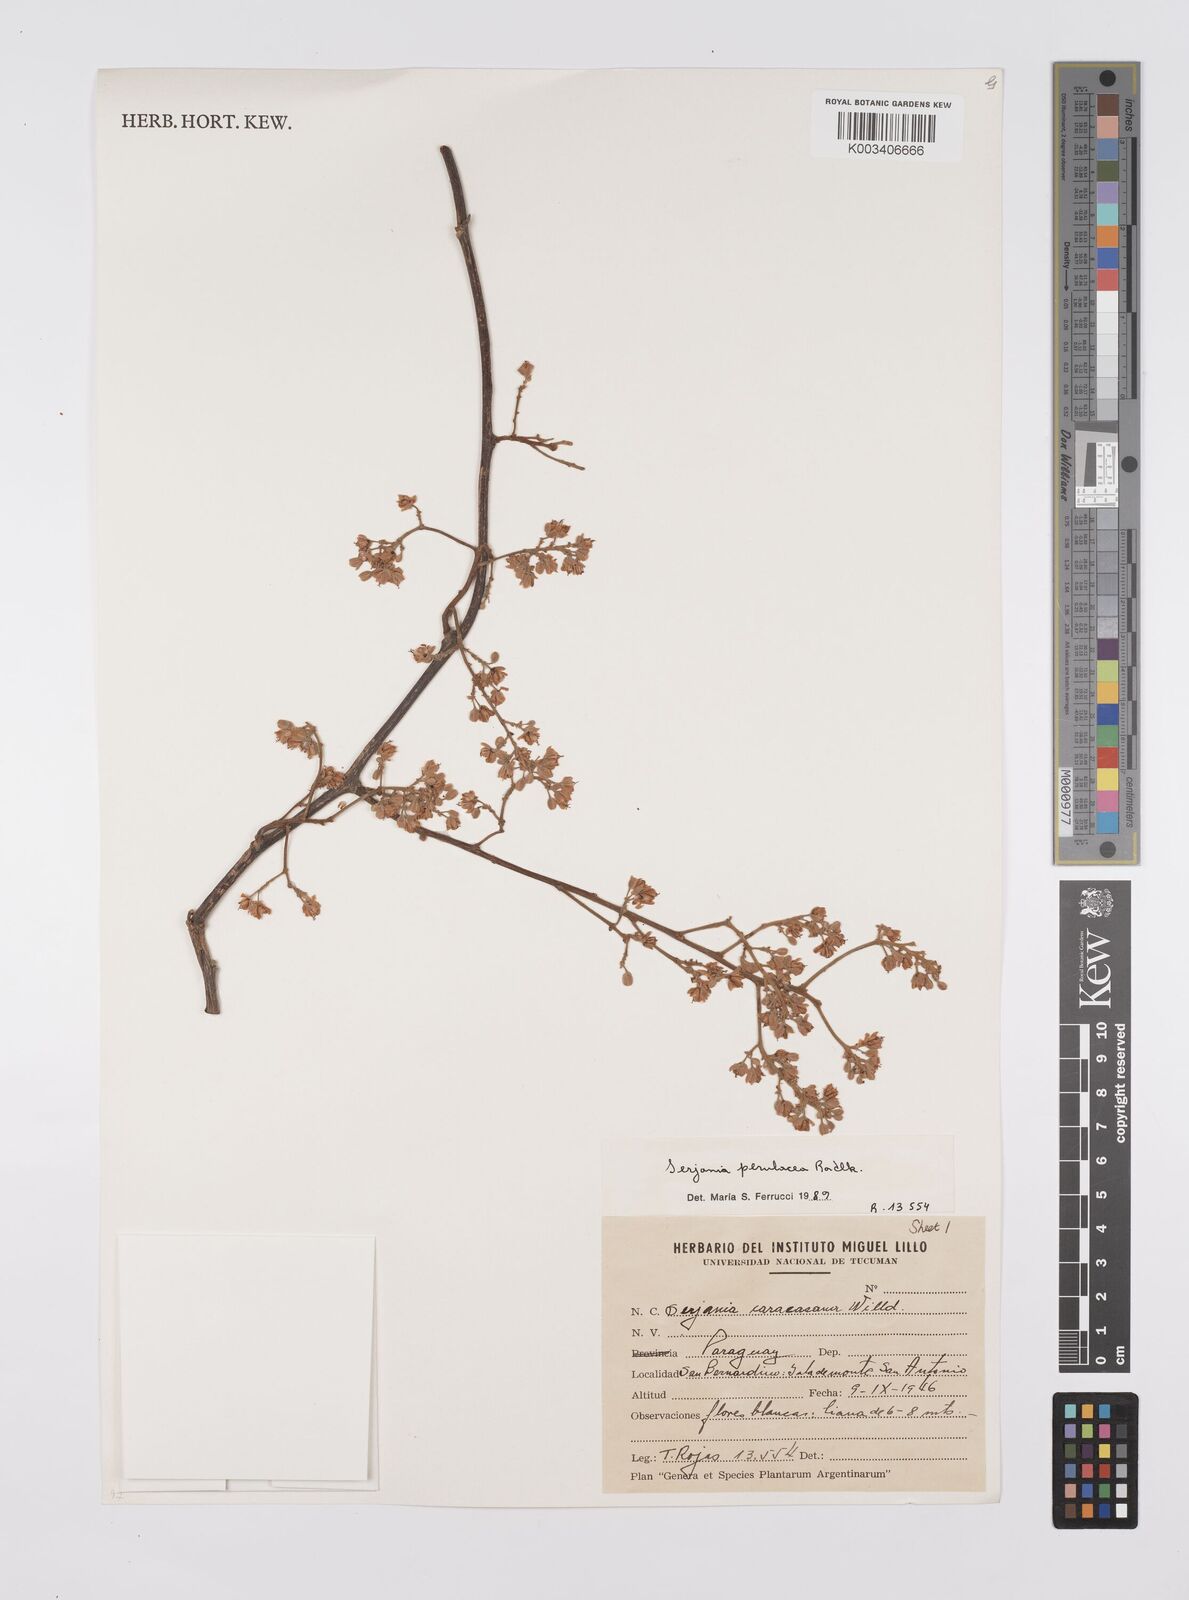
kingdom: Plantae
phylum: Tracheophyta
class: Magnoliopsida
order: Sapindales
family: Sapindaceae
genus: Serjania
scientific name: Serjania perulacea
